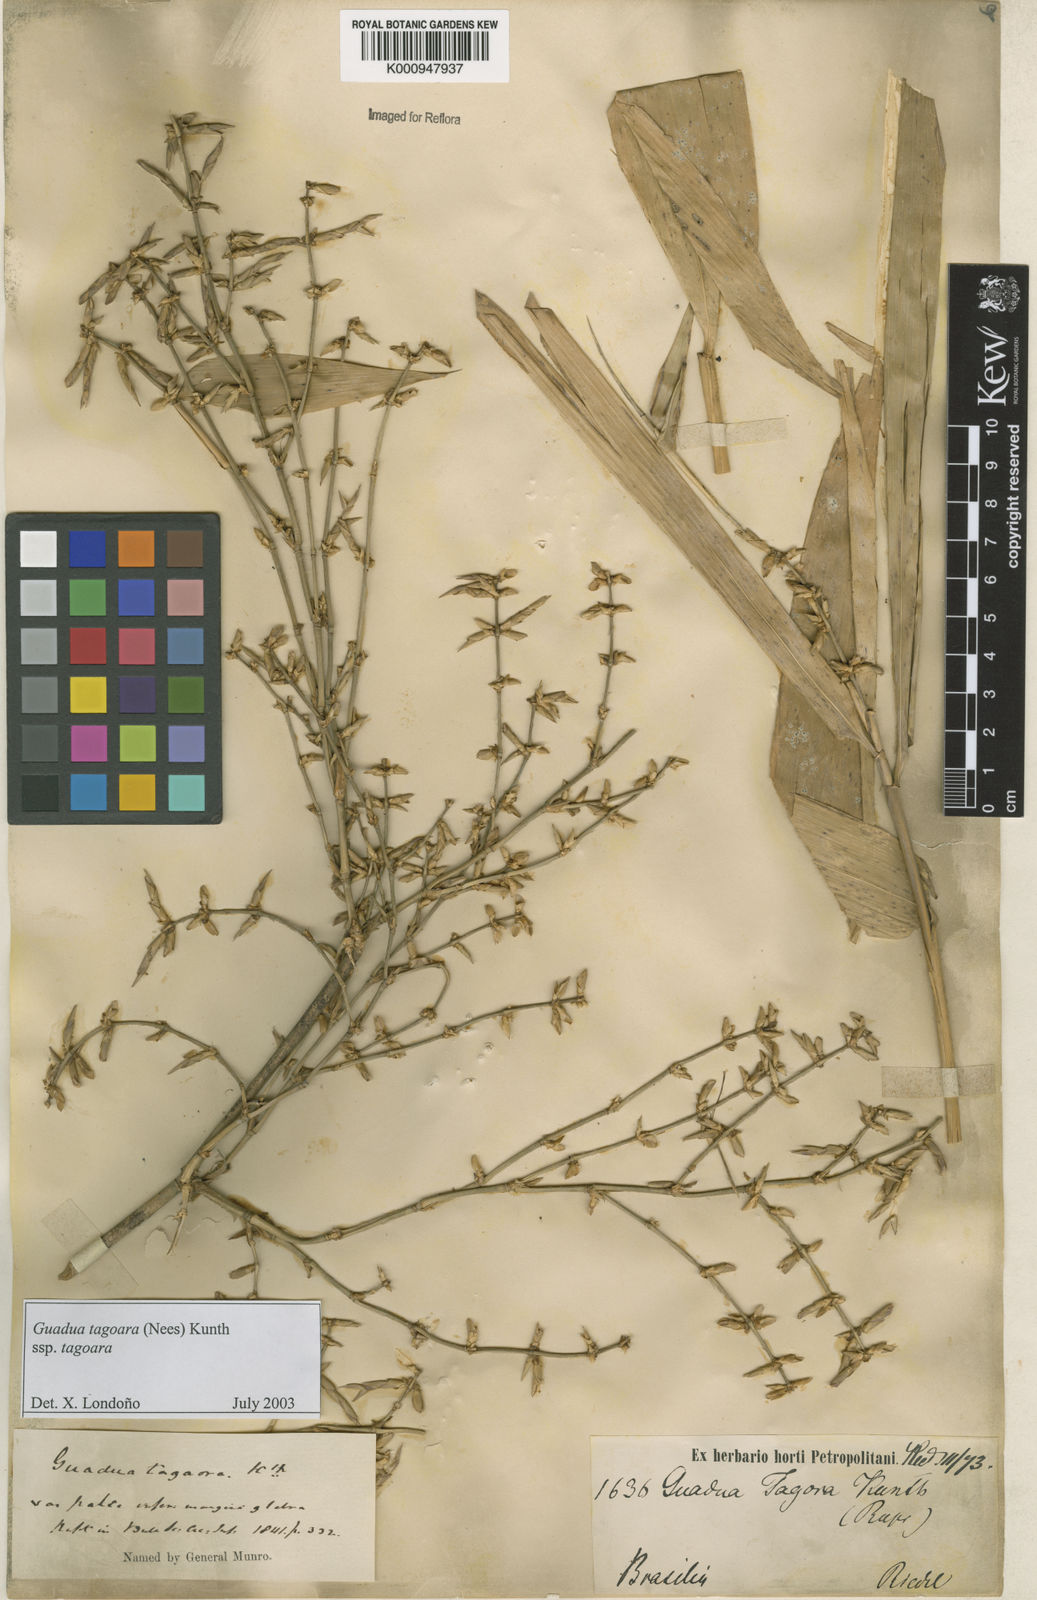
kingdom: Plantae
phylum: Tracheophyta
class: Liliopsida
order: Poales
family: Poaceae
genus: Guadua
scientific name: Guadua tagoara
